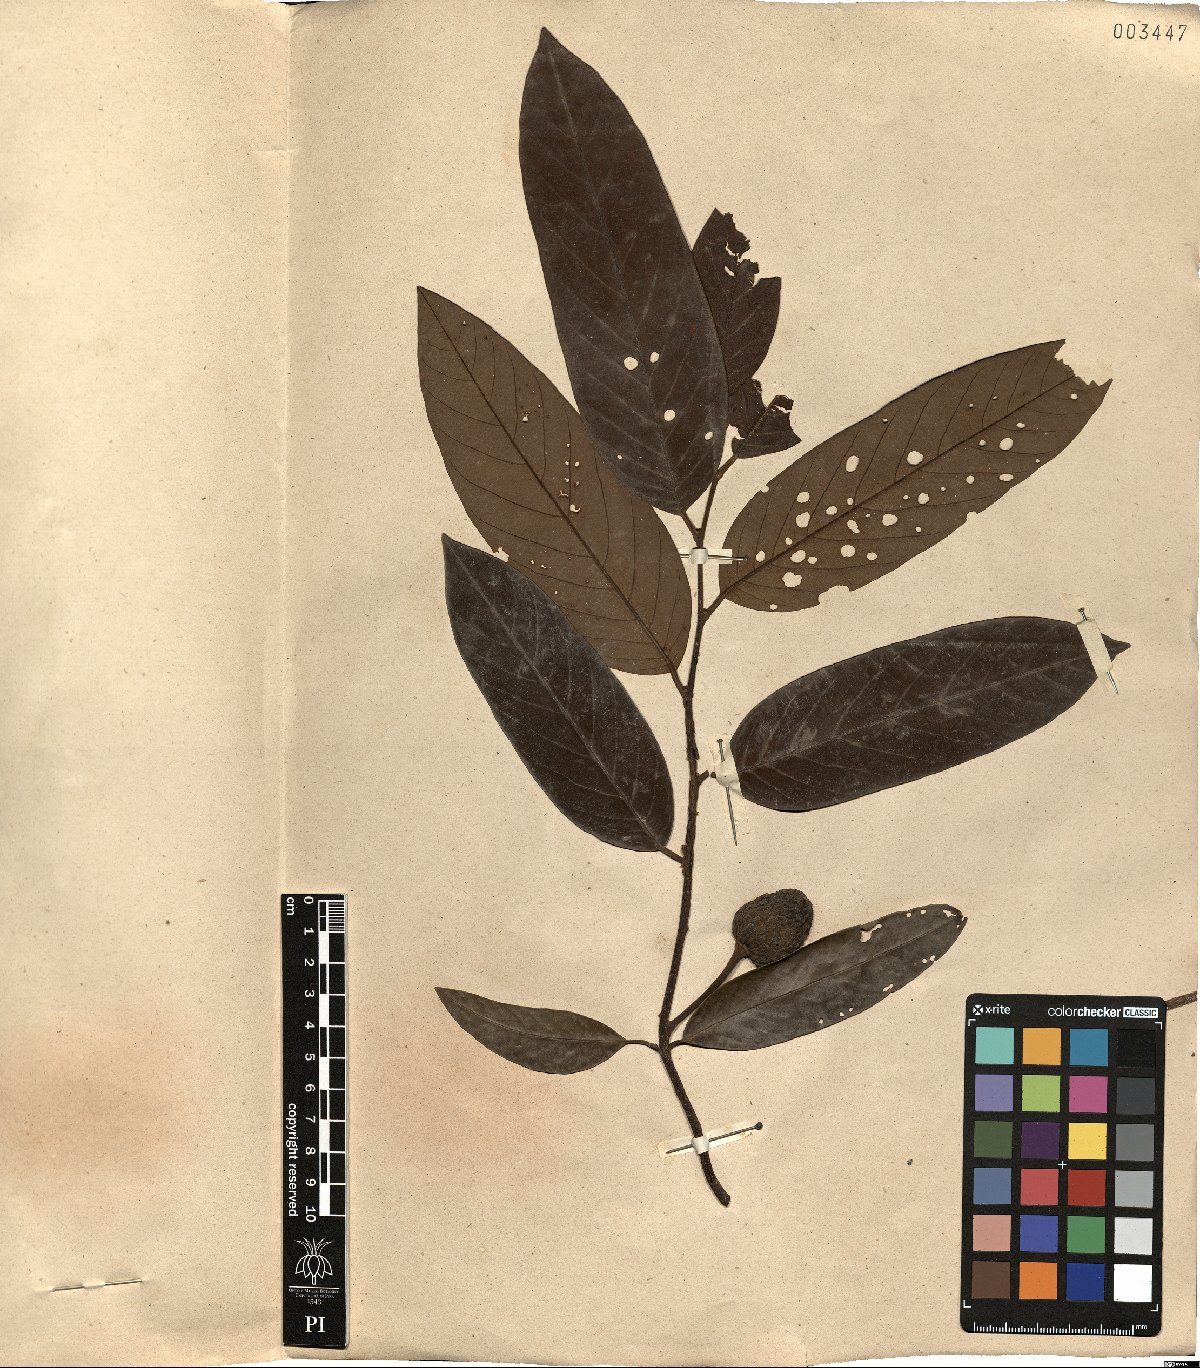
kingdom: Plantae
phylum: Tracheophyta
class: Magnoliopsida
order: Magnoliales
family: Annonaceae
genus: Annona
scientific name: Annona dolabripetala
